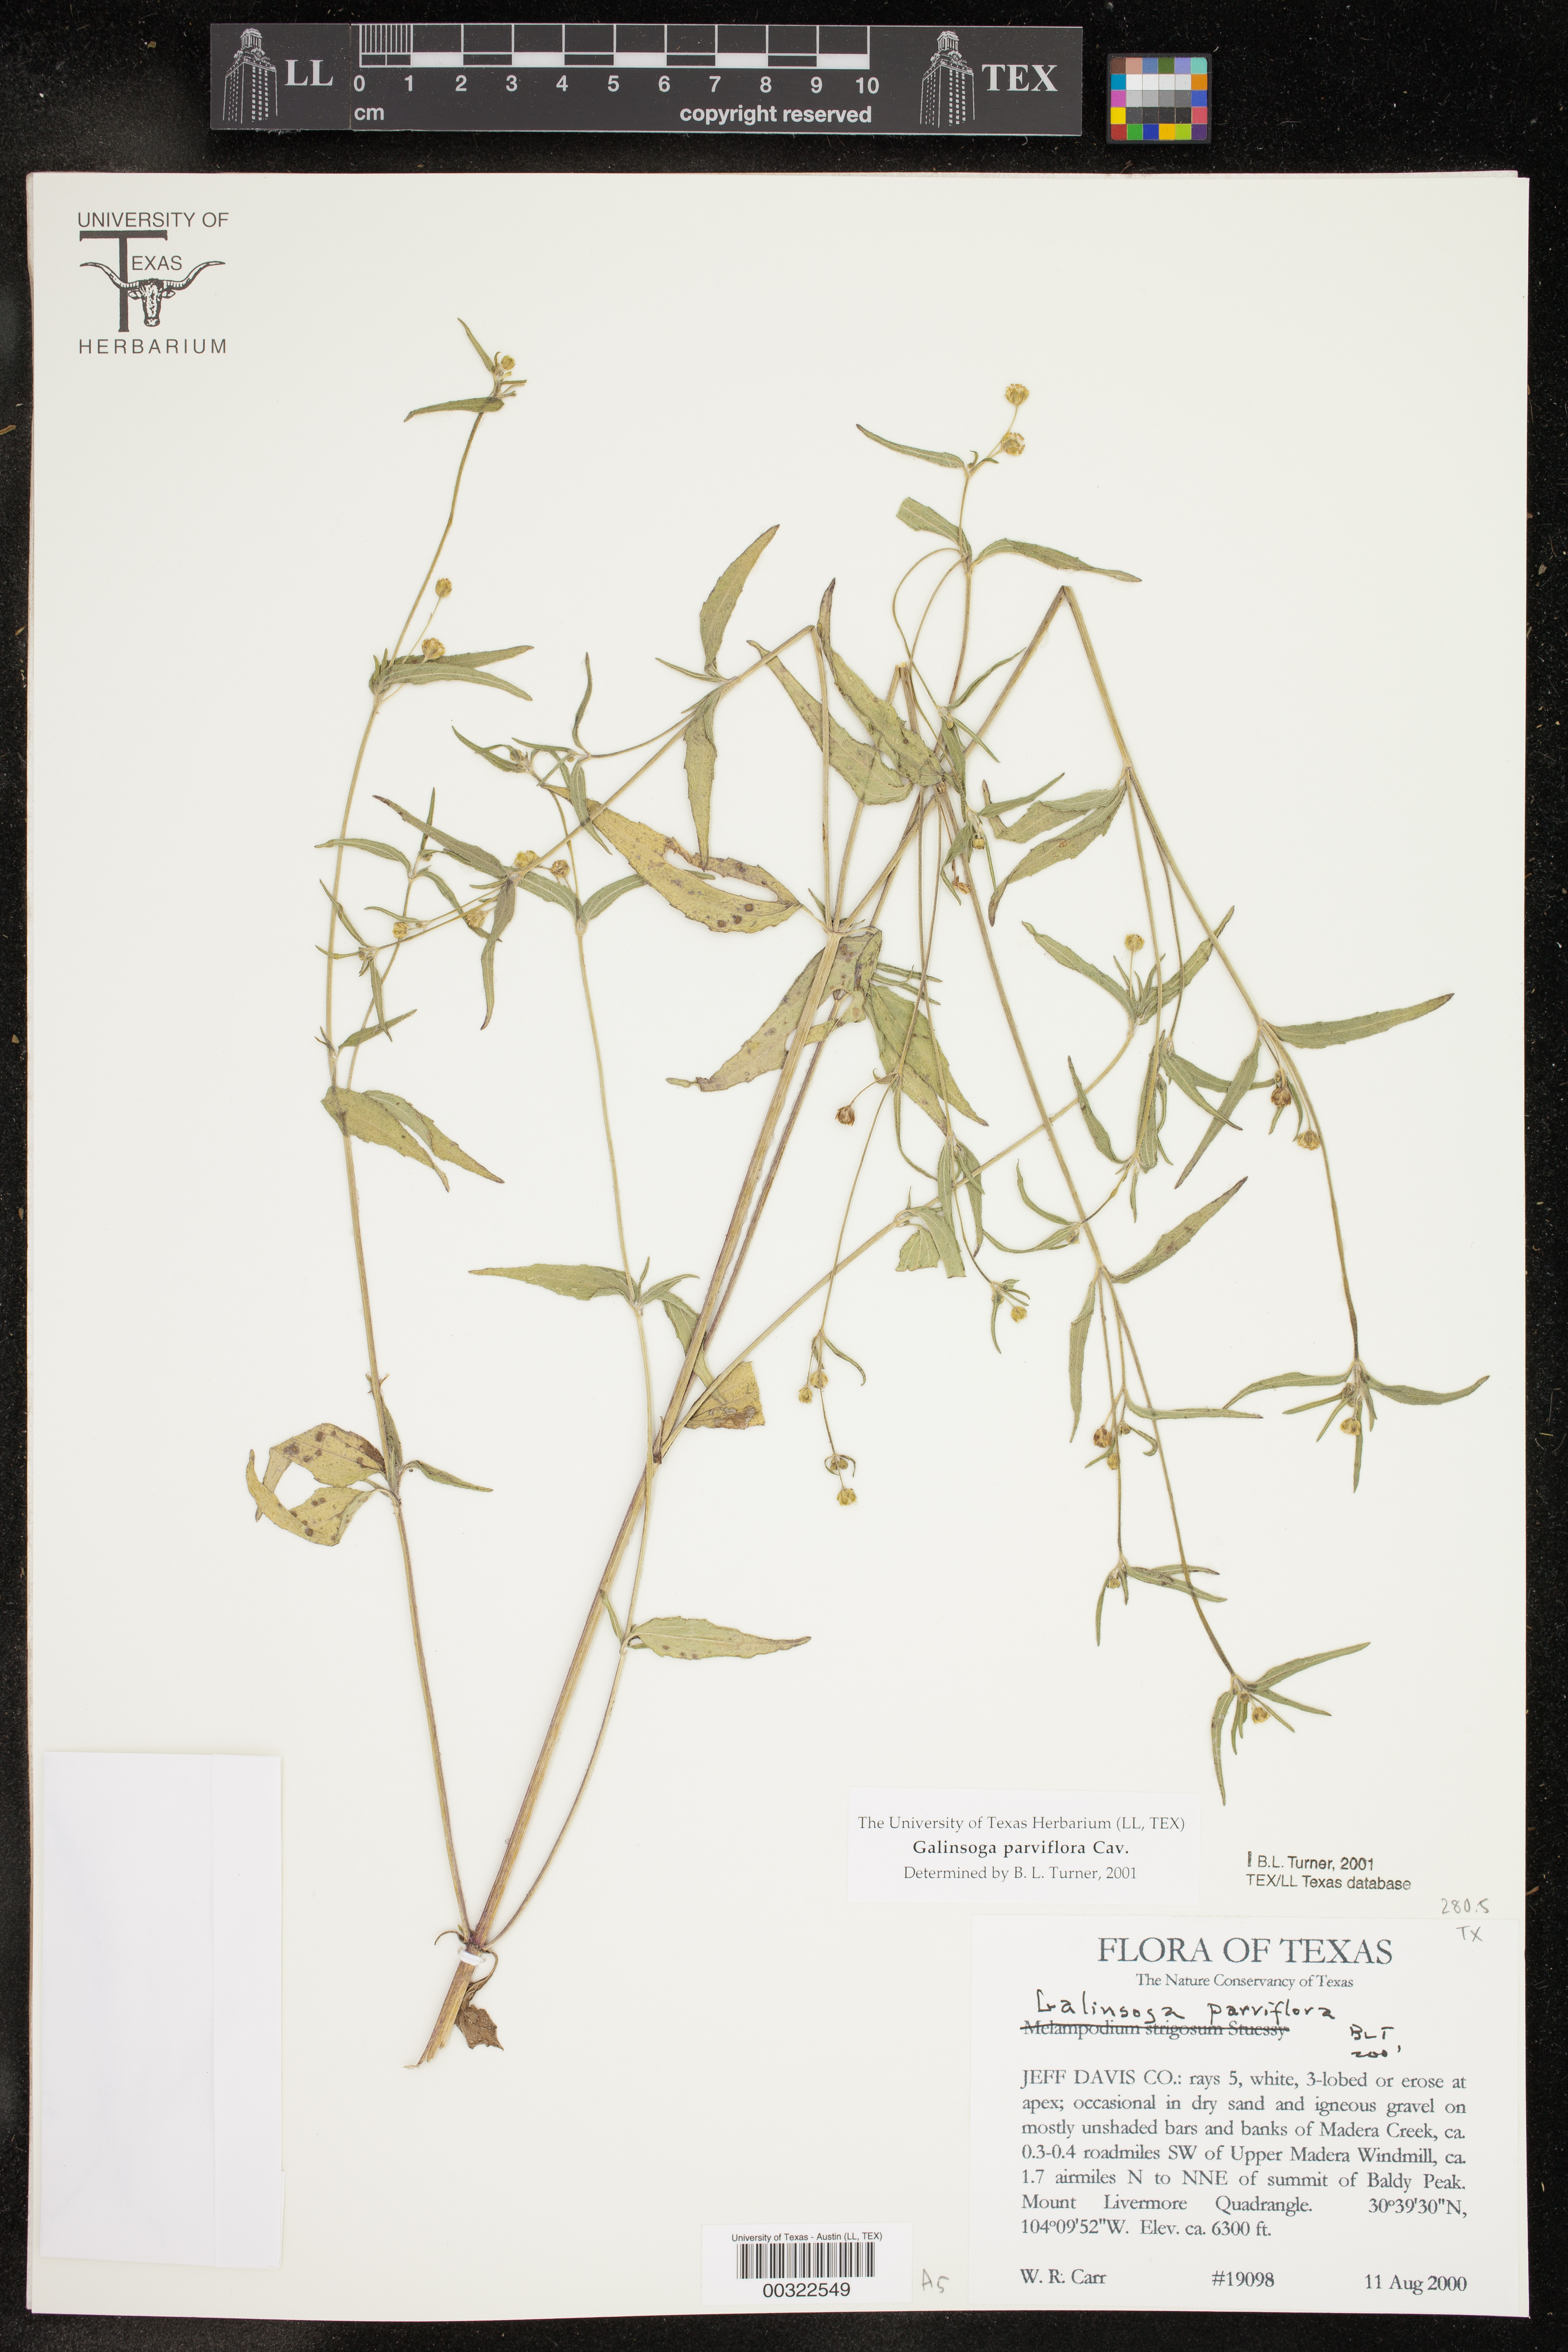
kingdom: Plantae
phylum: Tracheophyta
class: Magnoliopsida
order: Asterales
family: Asteraceae
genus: Galinsoga
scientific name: Galinsoga parviflora
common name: Gallant soldier
